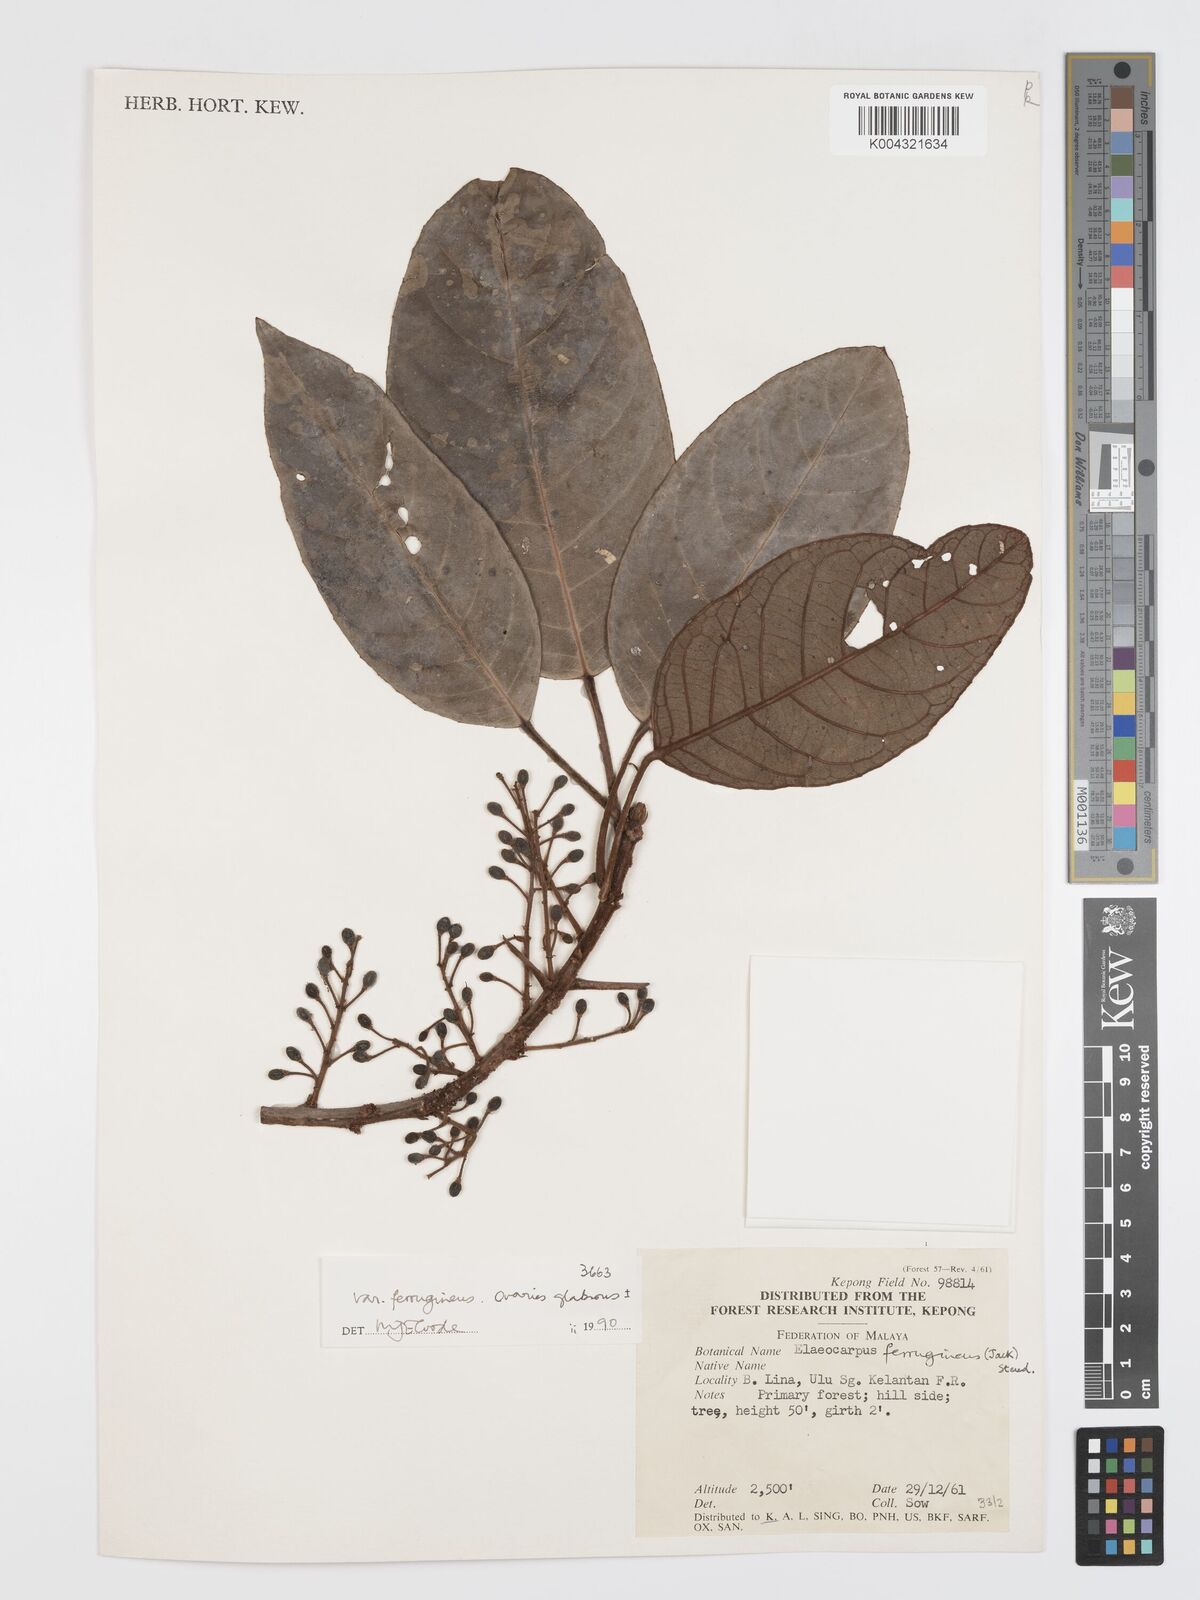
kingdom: Plantae
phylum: Tracheophyta
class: Magnoliopsida
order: Oxalidales
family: Elaeocarpaceae
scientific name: Elaeocarpaceae
